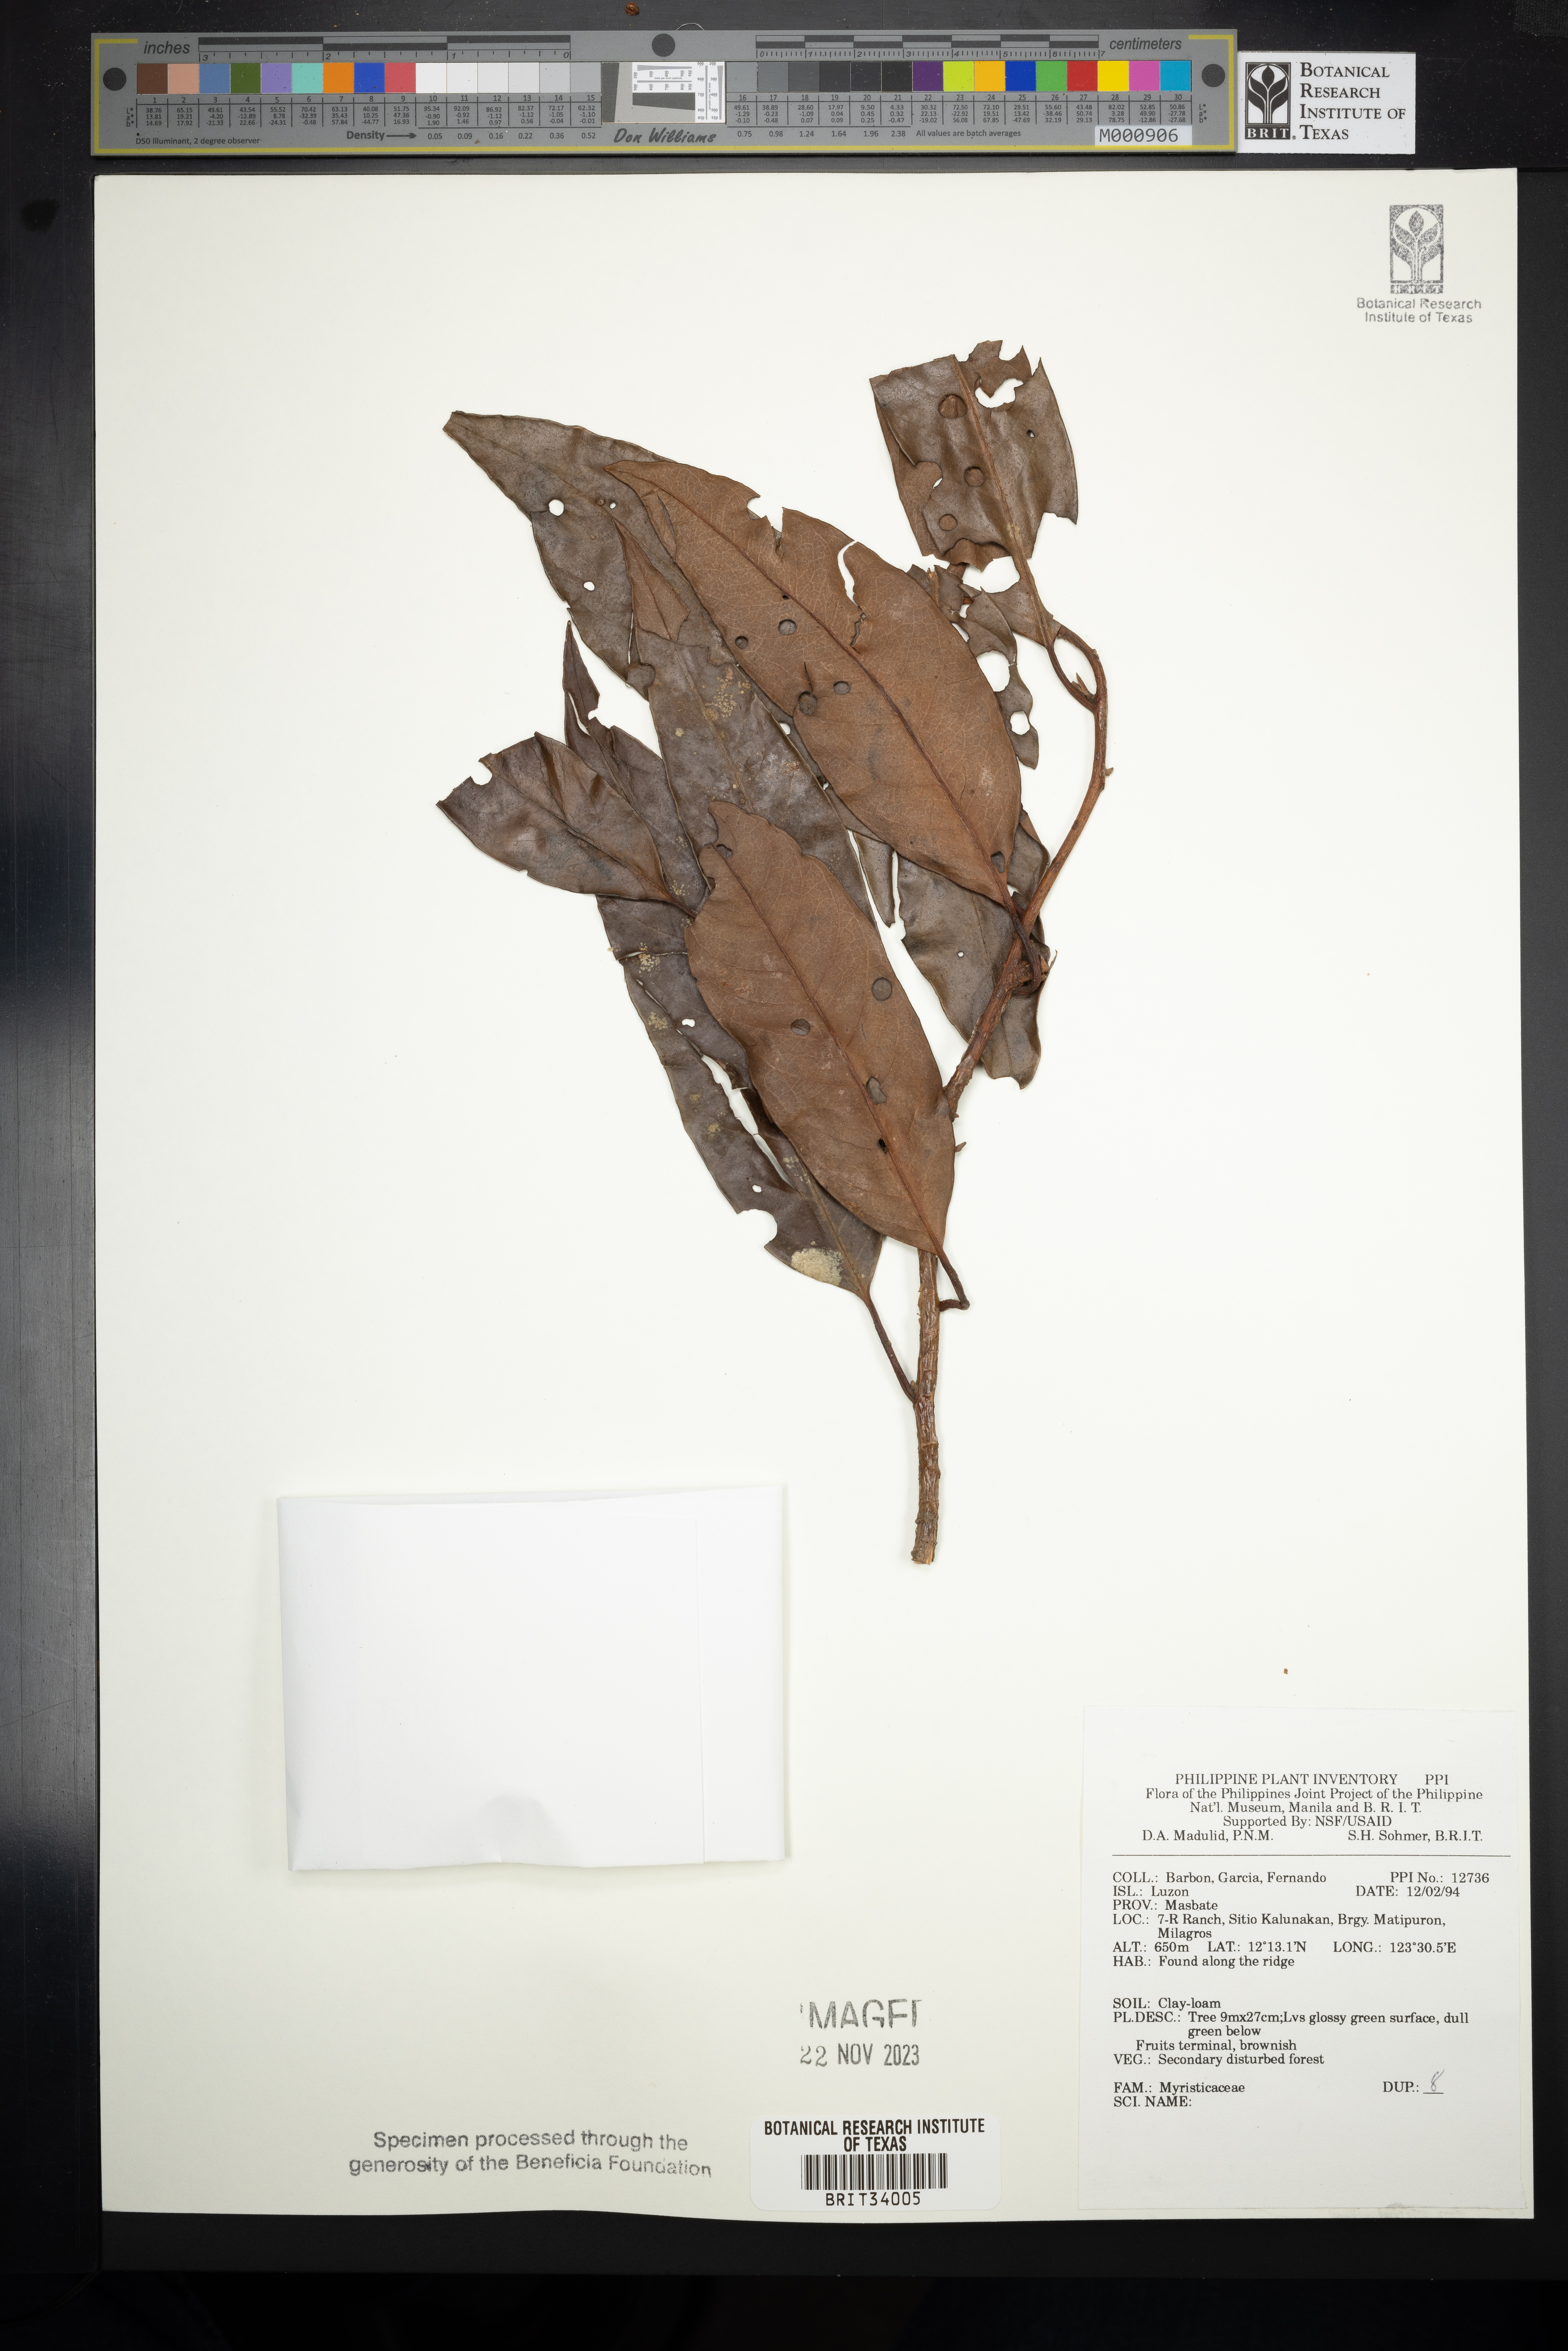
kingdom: Plantae
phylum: Tracheophyta
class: Magnoliopsida
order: Magnoliales
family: Myristicaceae
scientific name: Myristicaceae
